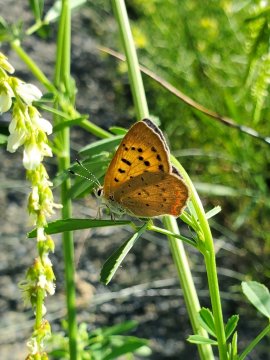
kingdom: Animalia
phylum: Arthropoda
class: Insecta
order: Lepidoptera
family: Lycaenidae
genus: Tharsalea
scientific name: Tharsalea
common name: Copper butterflies
